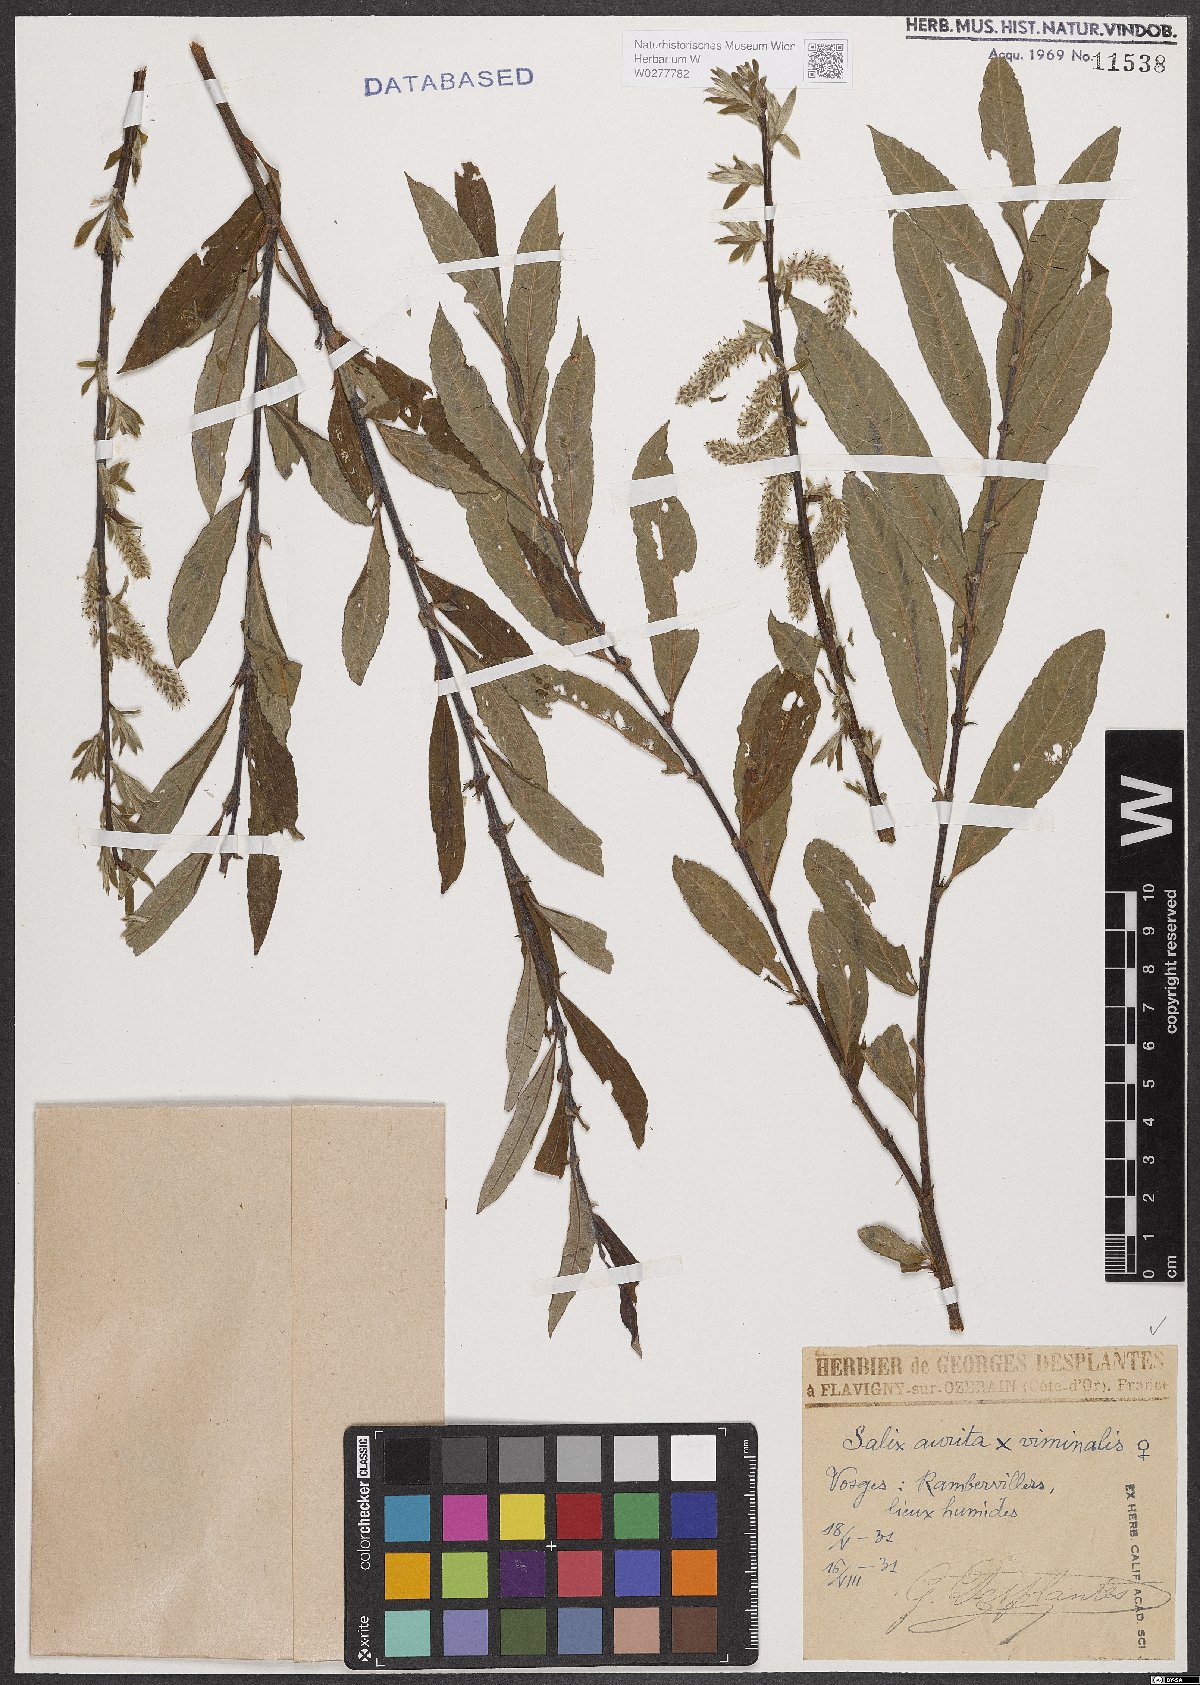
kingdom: Plantae
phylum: Tracheophyta
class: Magnoliopsida
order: Malpighiales
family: Salicaceae
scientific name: Salicaceae
